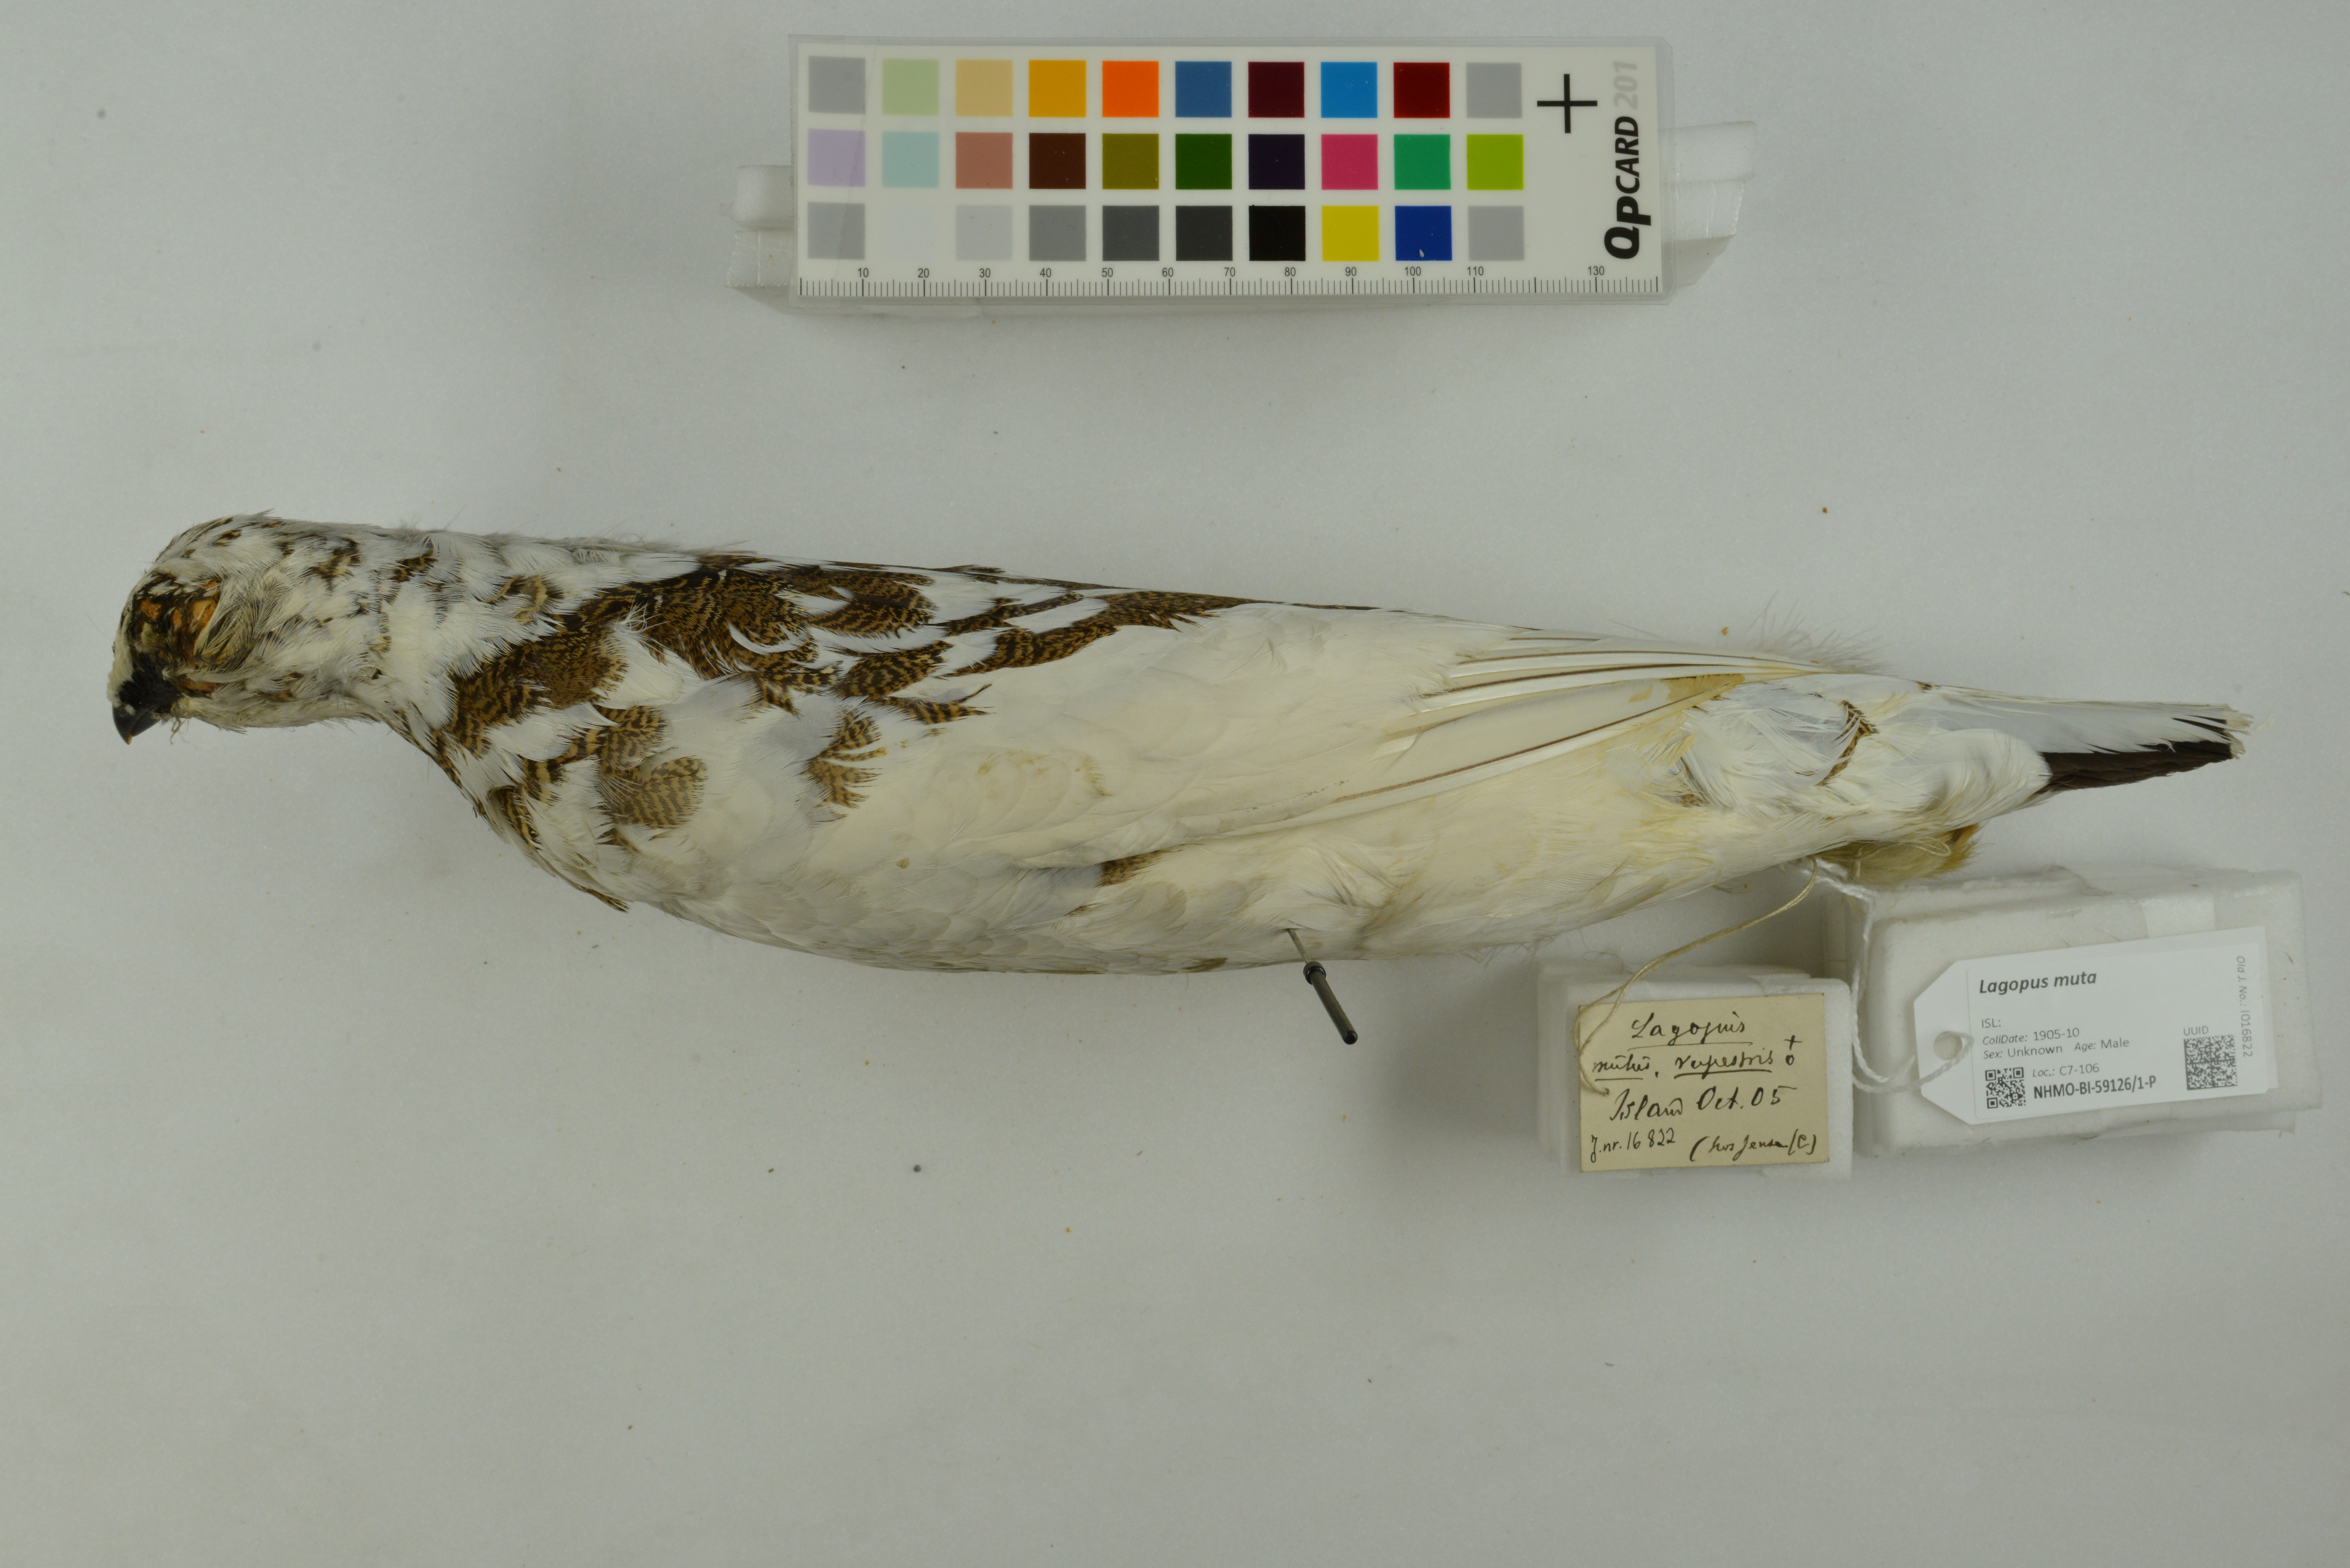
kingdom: Animalia
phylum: Chordata
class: Aves
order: Galliformes
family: Phasianidae
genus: Lagopus
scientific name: Lagopus muta
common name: Rock ptarmigan
